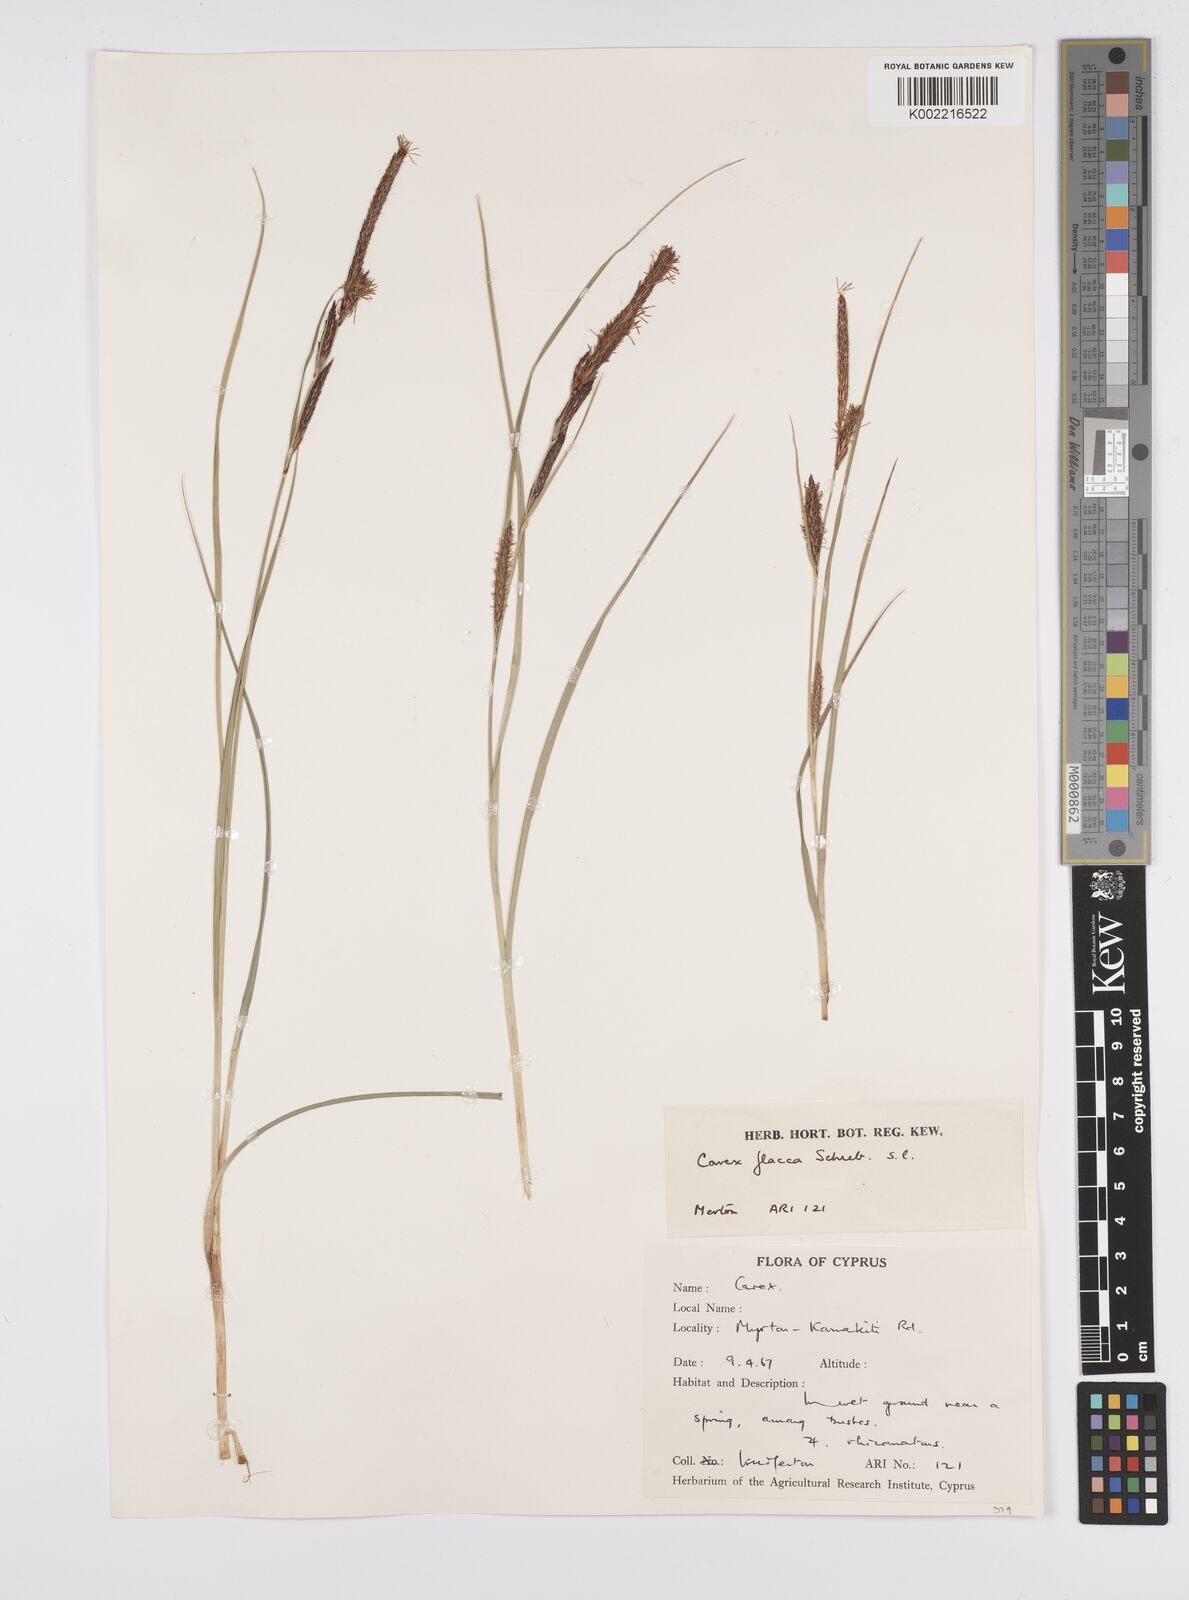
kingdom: Plantae
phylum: Tracheophyta
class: Liliopsida
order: Poales
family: Cyperaceae
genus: Carex
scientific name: Carex flacca
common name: Glaucous sedge
